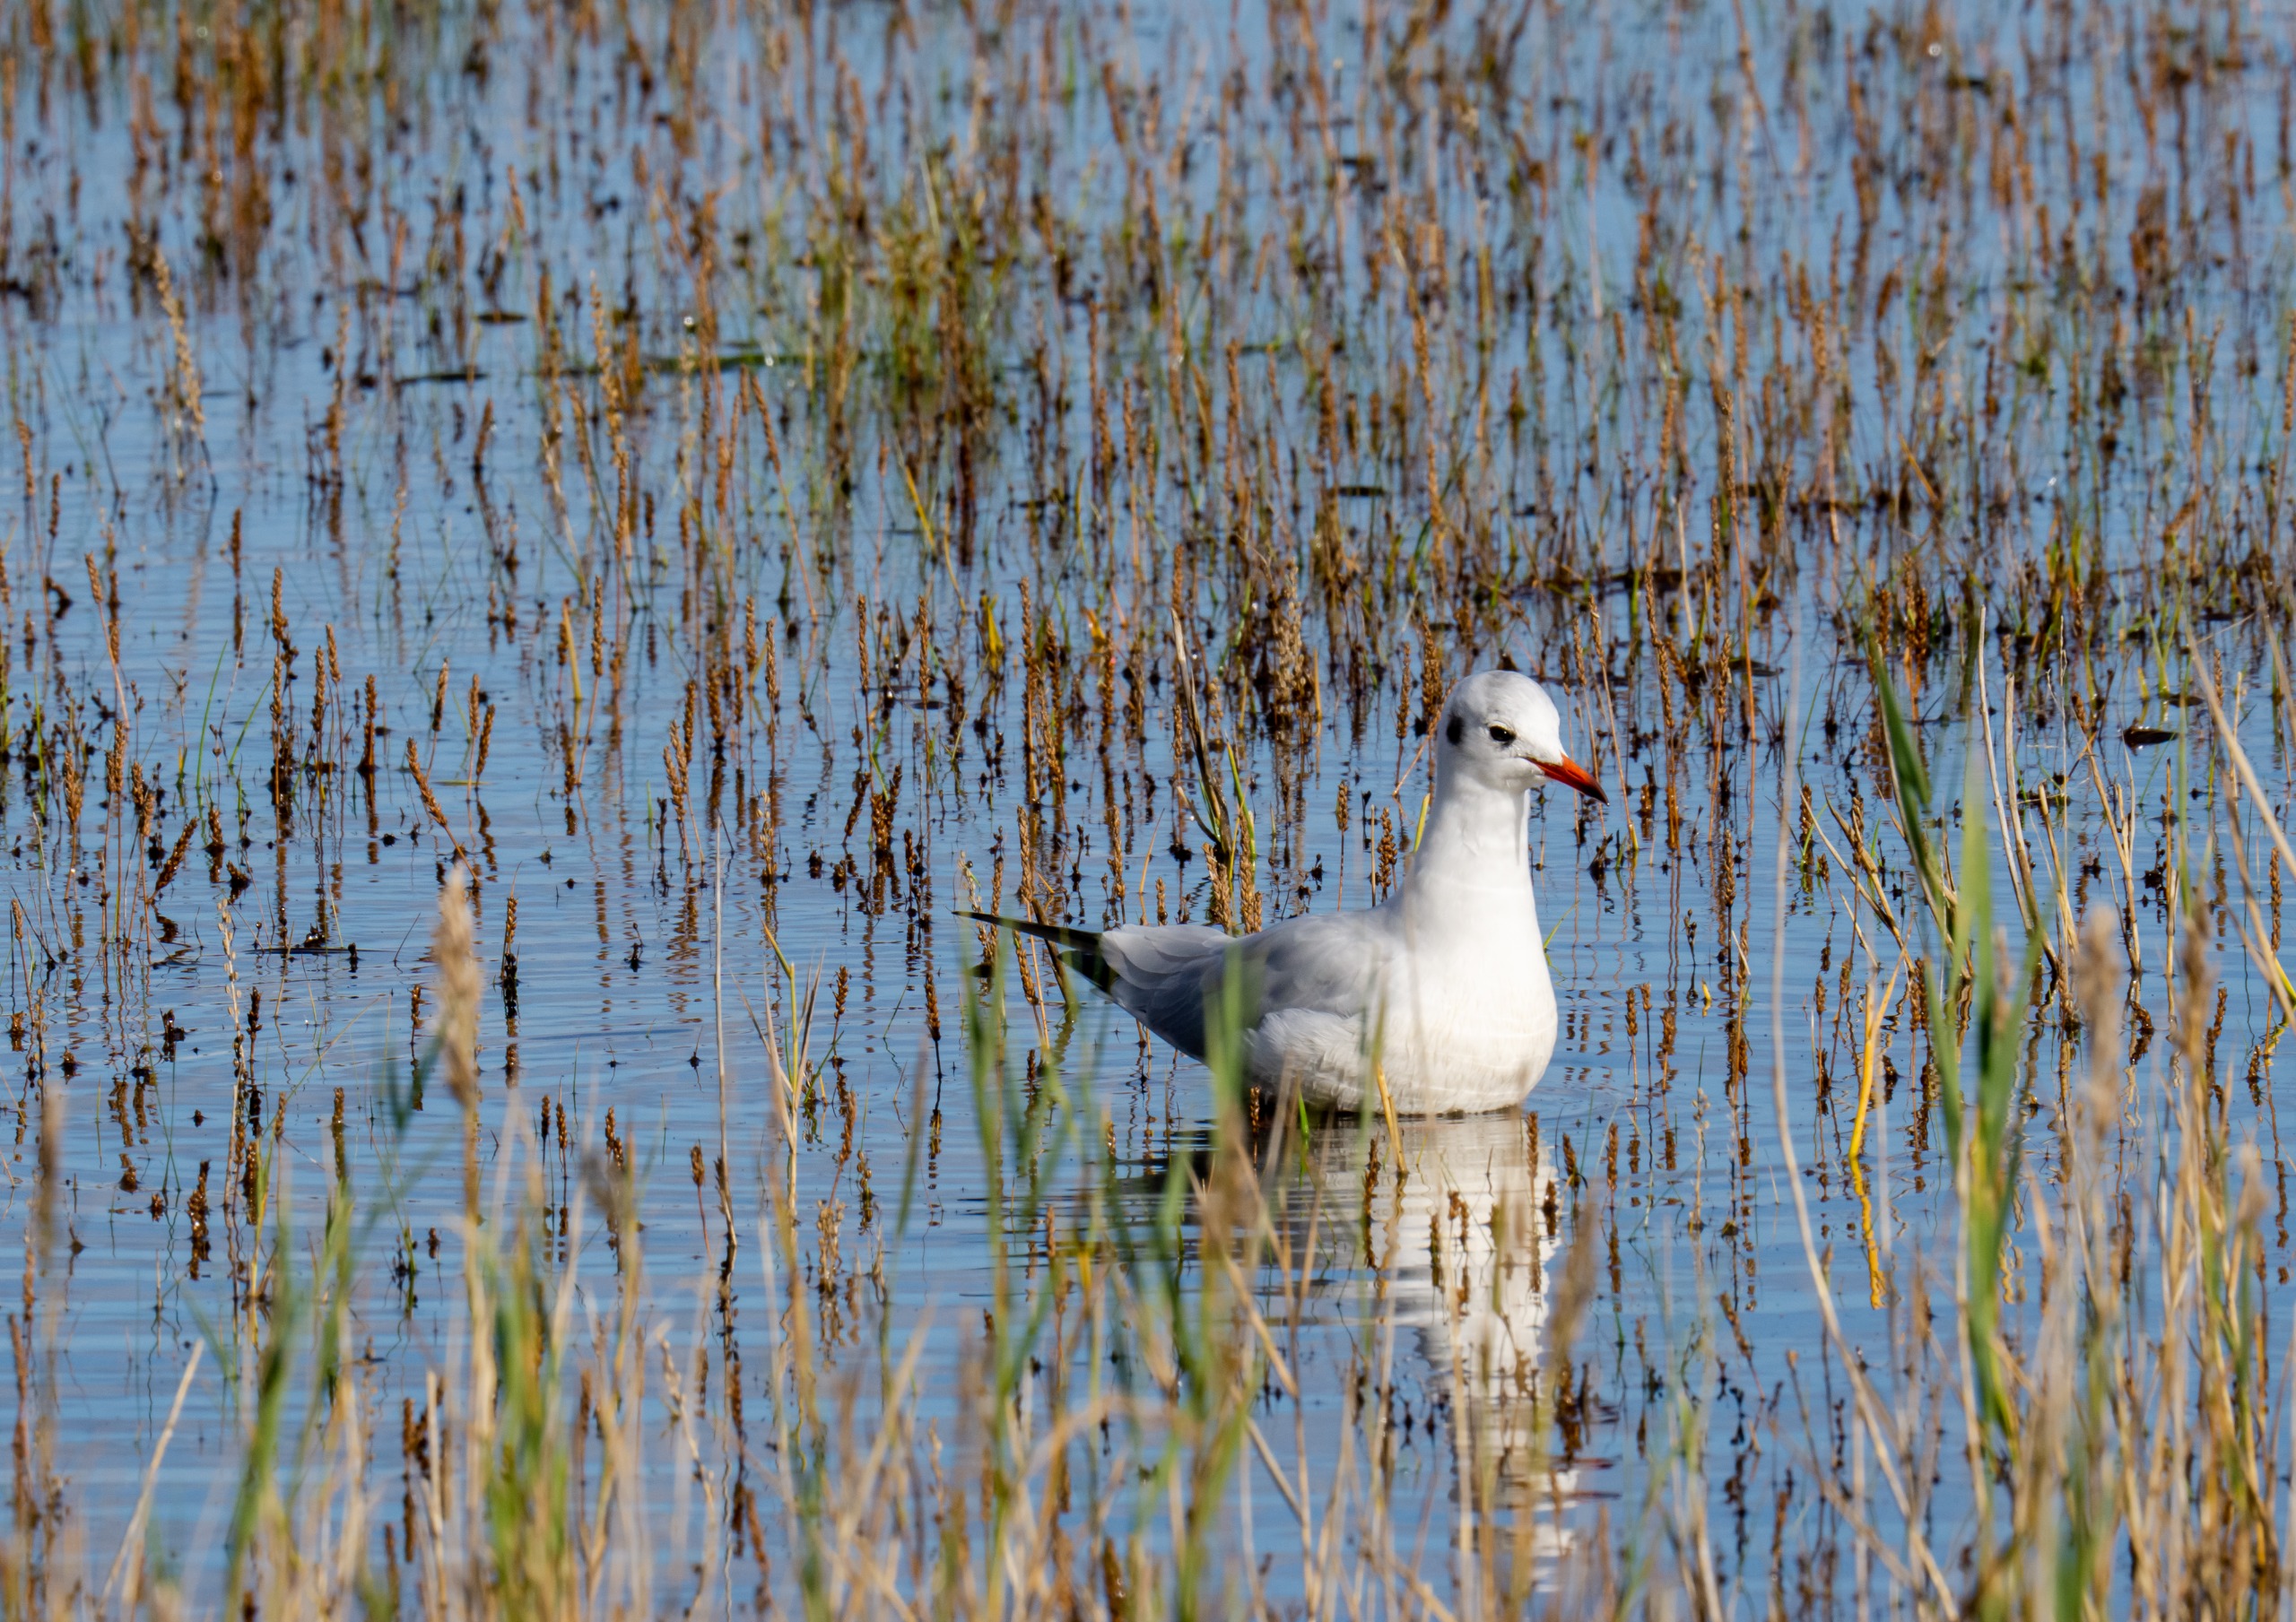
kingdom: Animalia
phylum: Chordata
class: Aves
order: Charadriiformes
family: Laridae
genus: Chroicocephalus
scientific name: Chroicocephalus ridibundus
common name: Hættemåge
